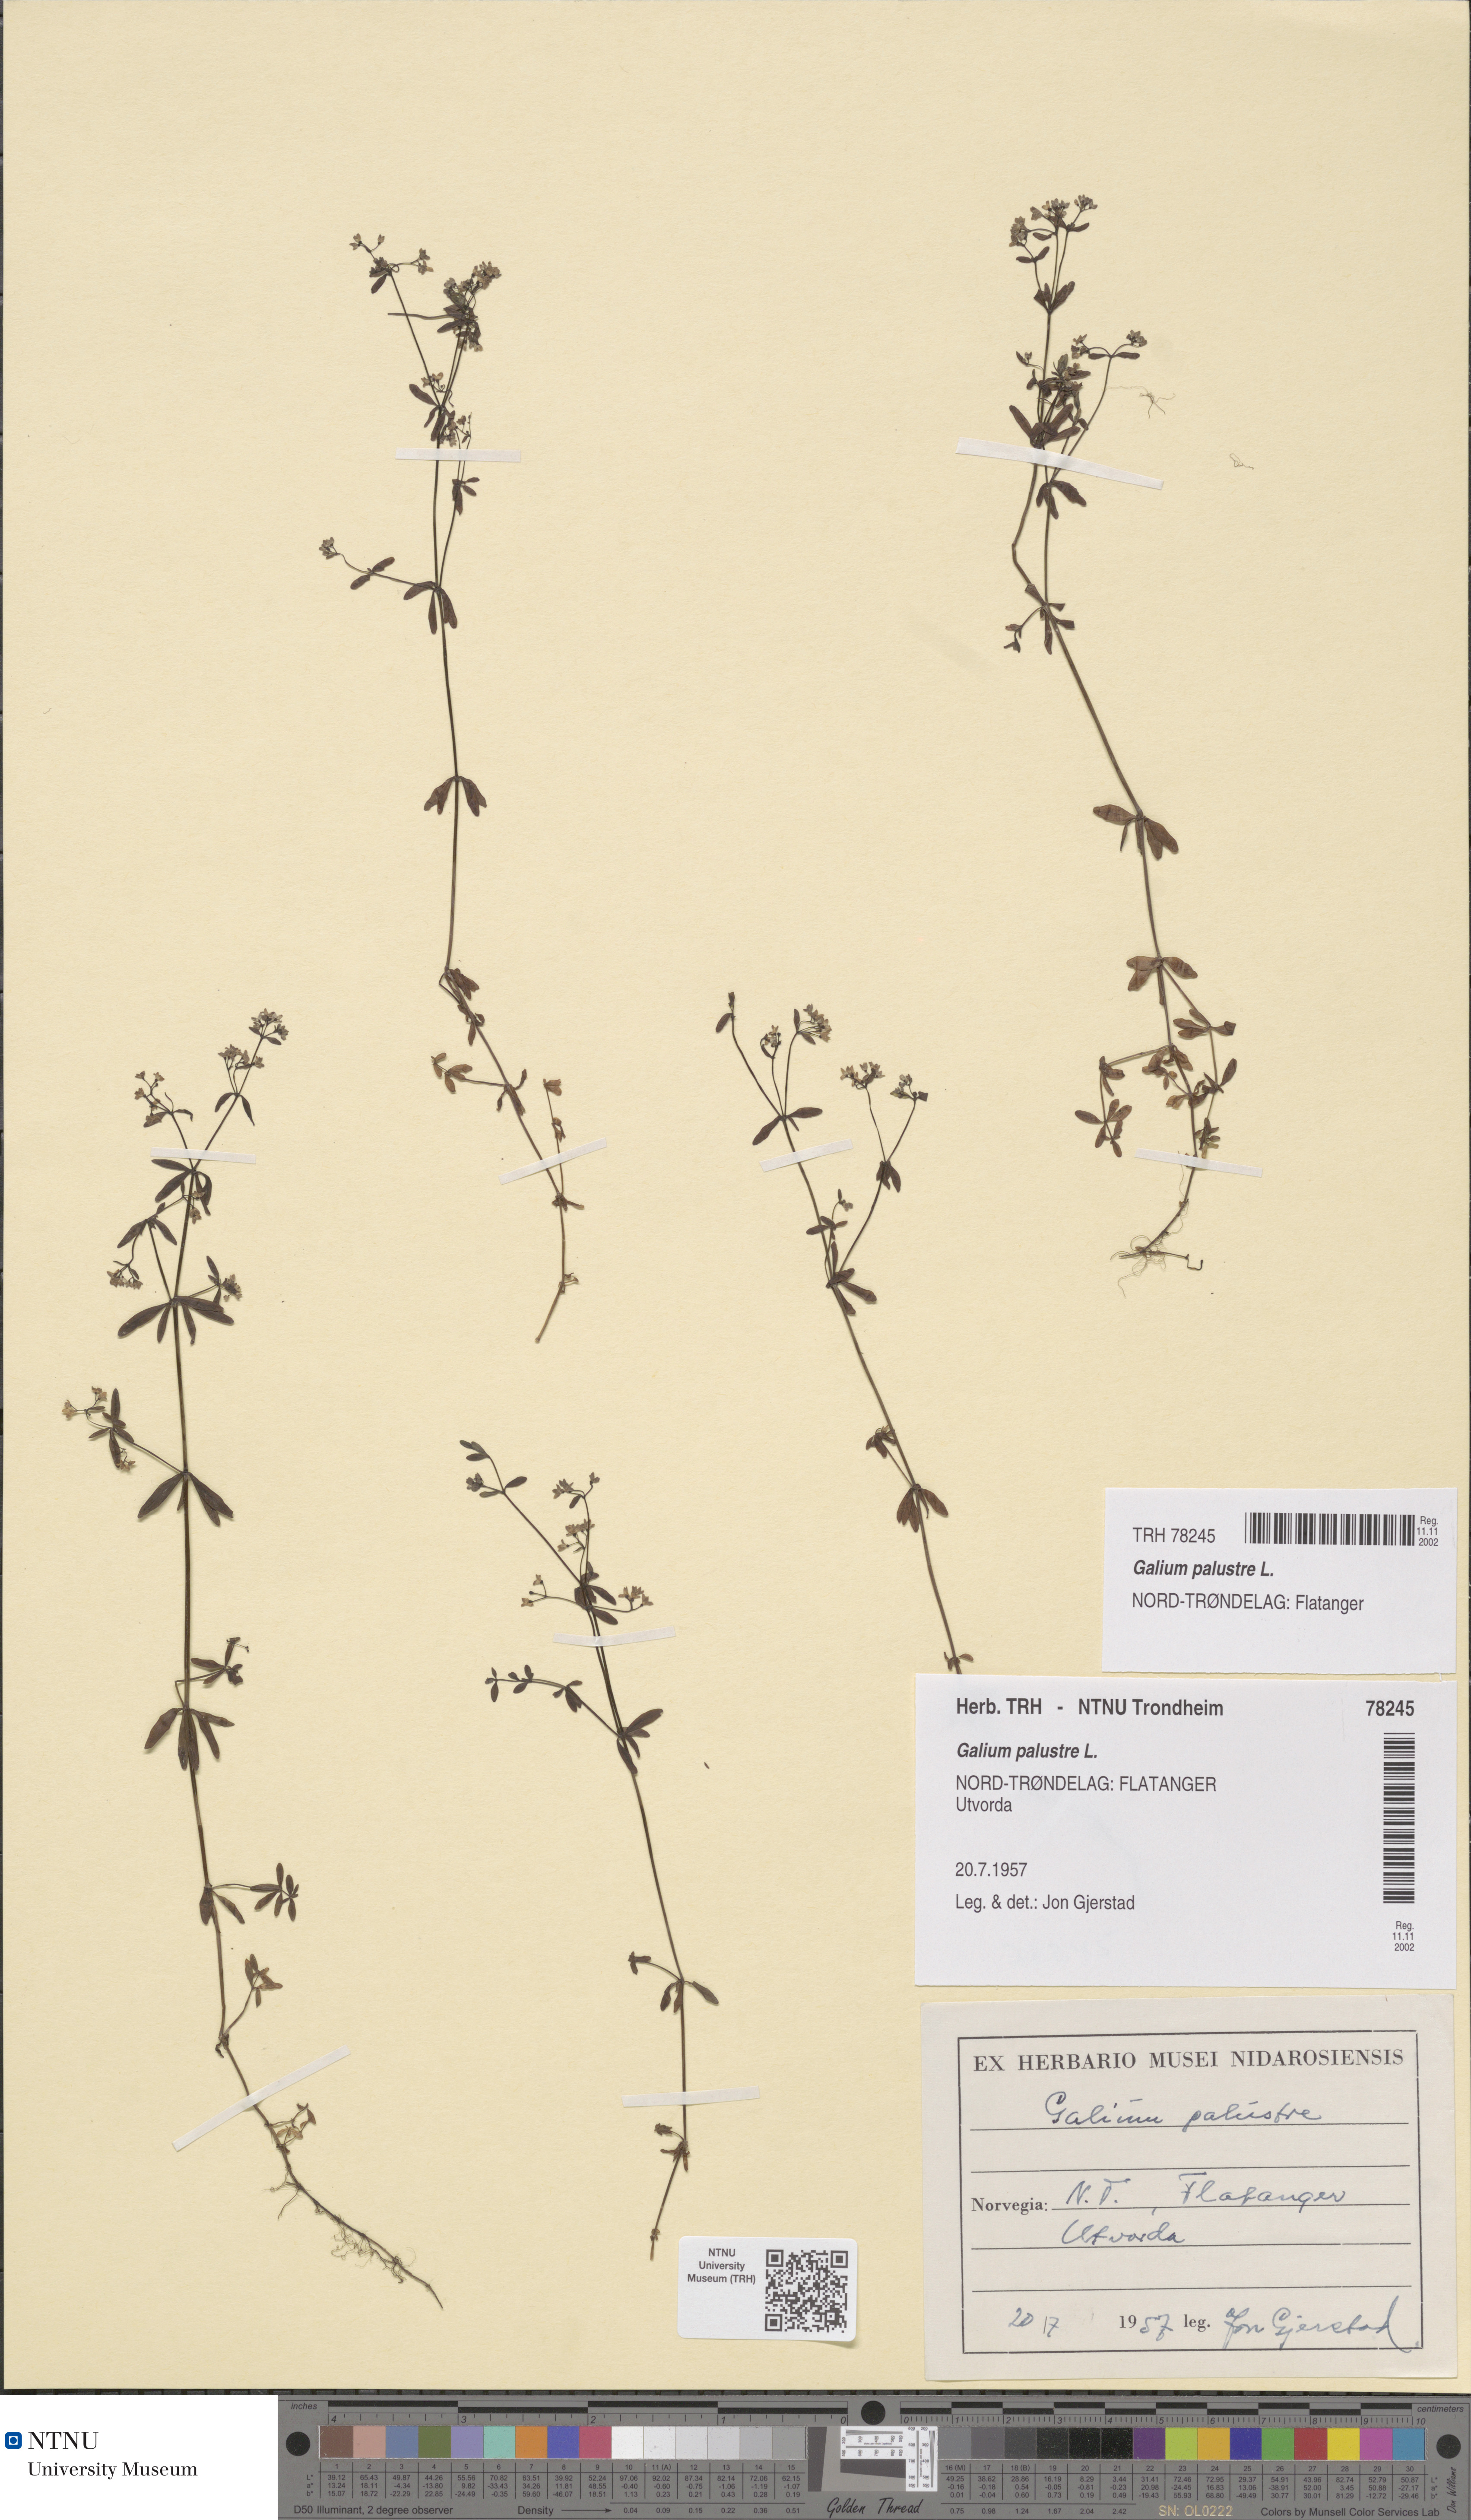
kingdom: Plantae
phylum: Tracheophyta
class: Magnoliopsida
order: Gentianales
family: Rubiaceae
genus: Galium
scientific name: Galium palustre
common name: Common marsh-bedstraw
